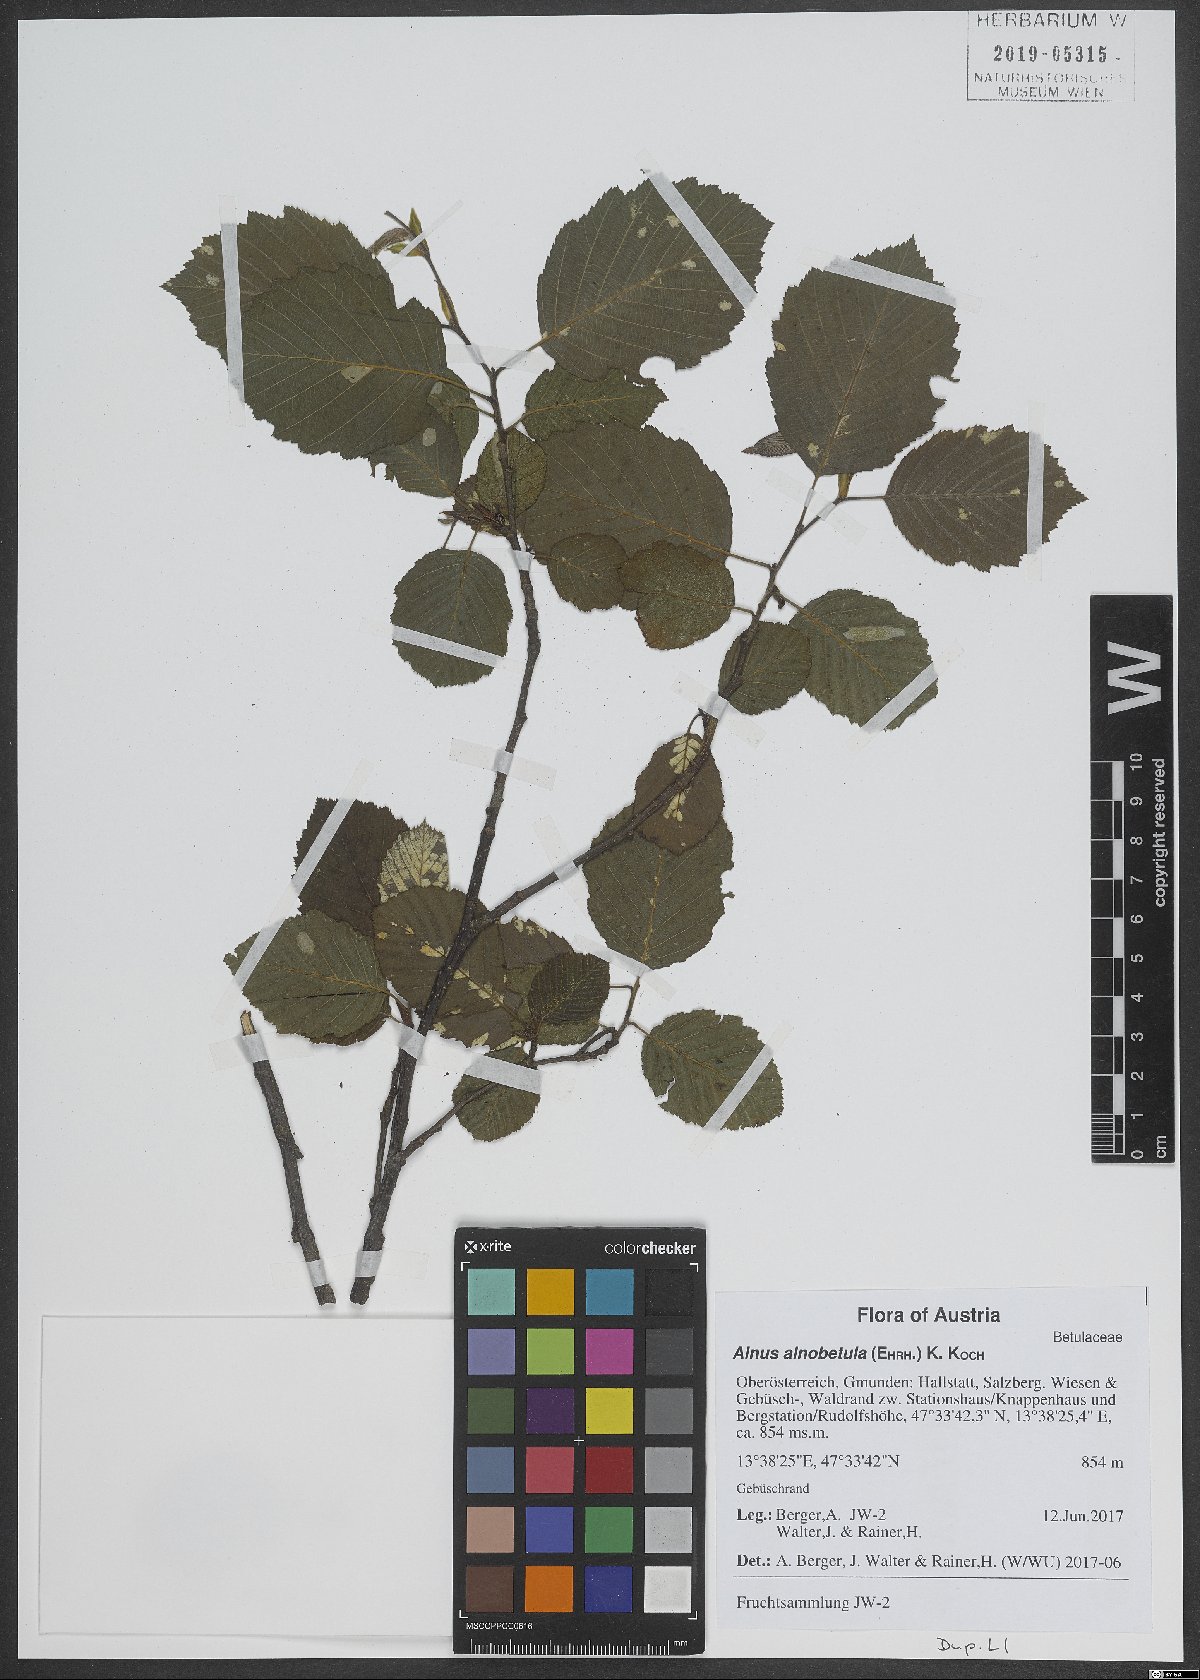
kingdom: Plantae
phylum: Tracheophyta
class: Magnoliopsida
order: Fagales
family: Betulaceae
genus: Alnus
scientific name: Alnus alnobetula
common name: Green alder
